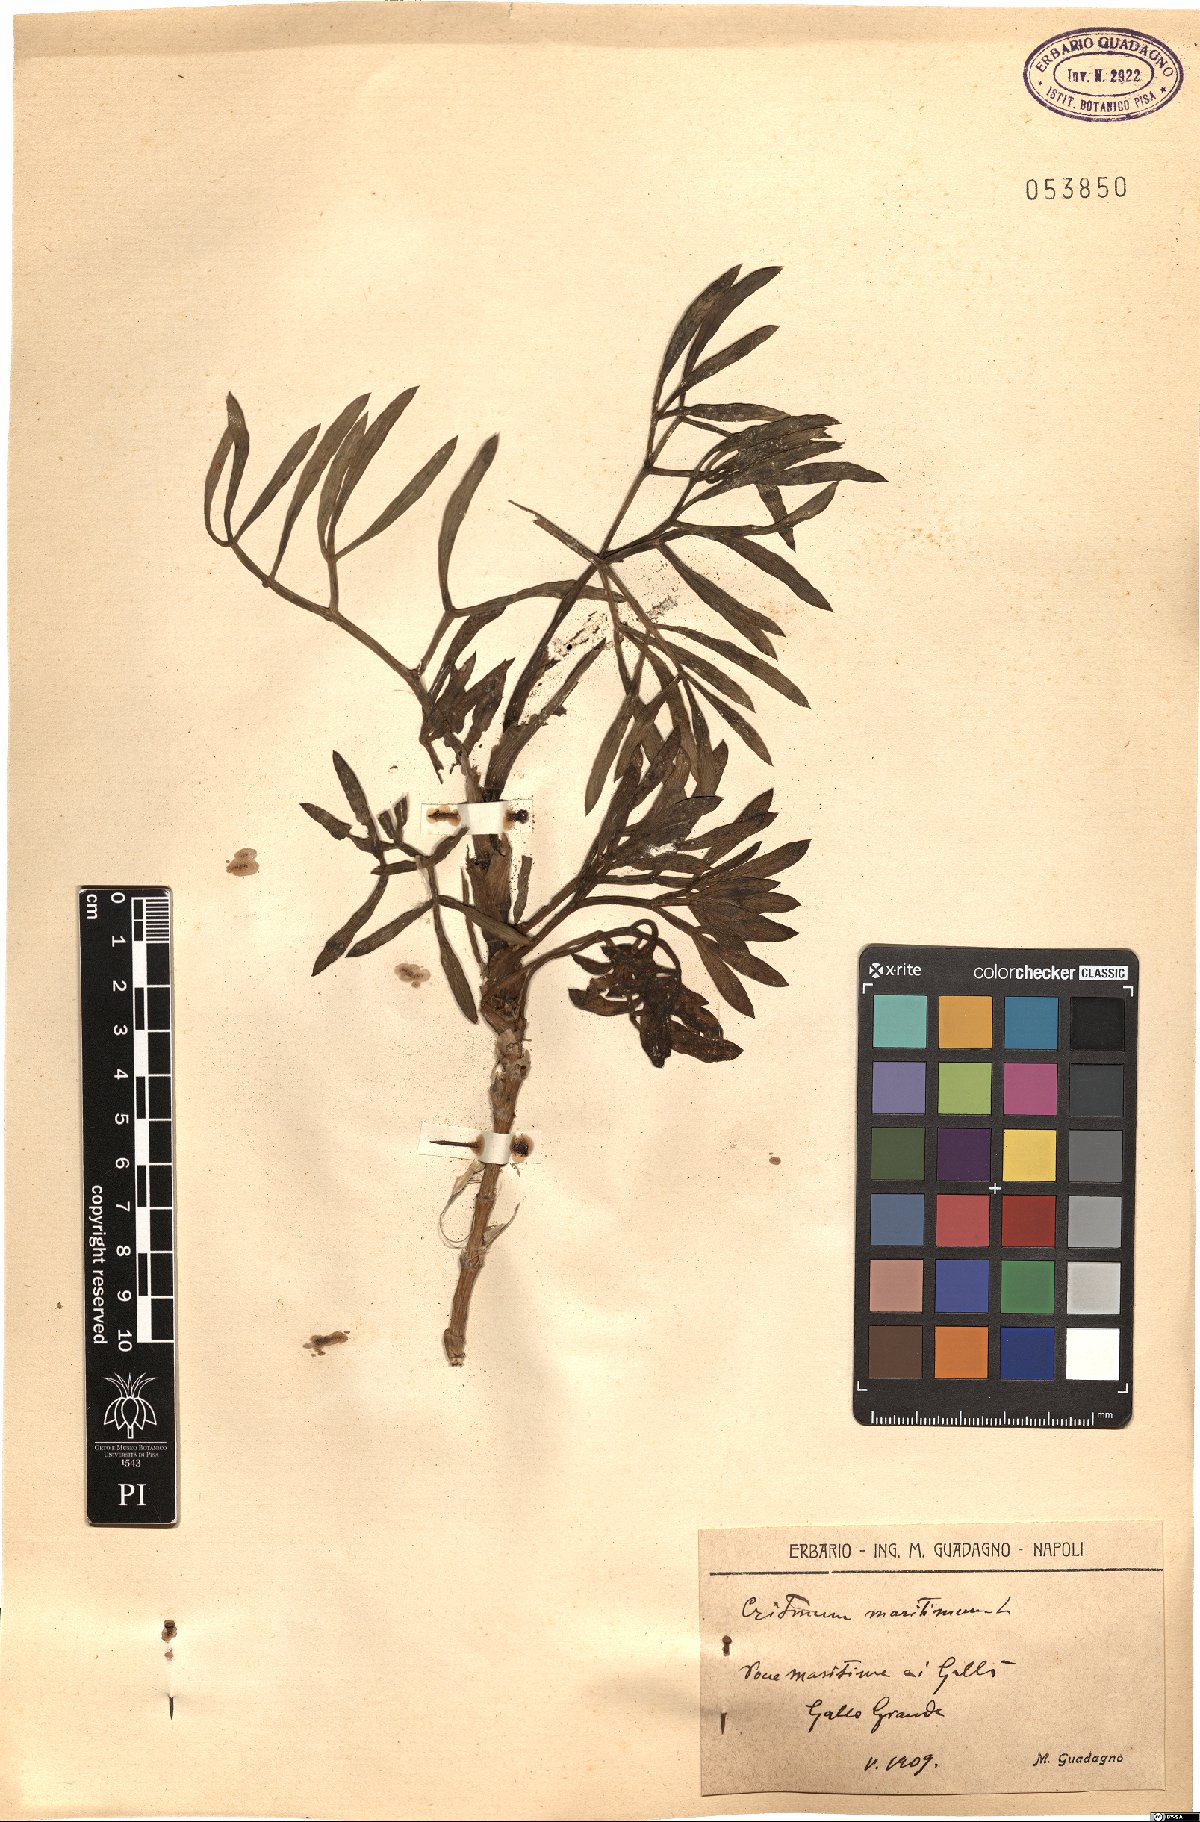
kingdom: Plantae
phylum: Tracheophyta
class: Magnoliopsida
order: Apiales
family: Apiaceae
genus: Crithmum
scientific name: Crithmum maritimum
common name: Rock samphire
